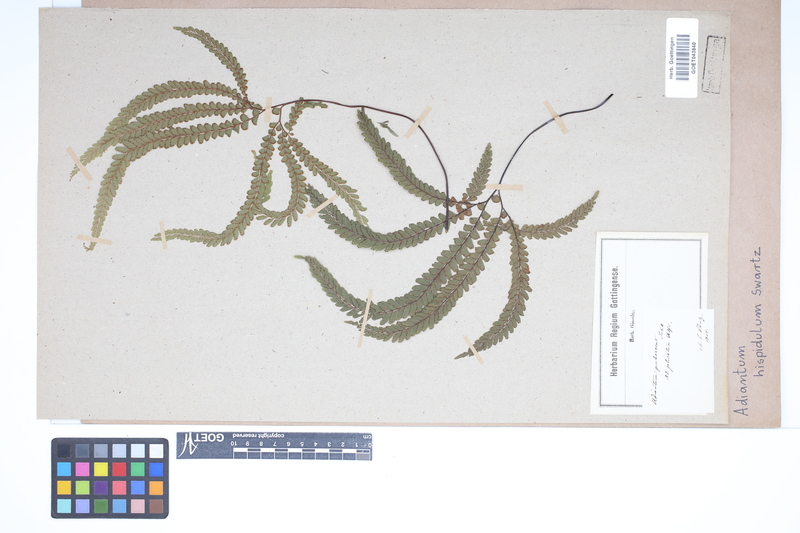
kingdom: Plantae
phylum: Tracheophyta
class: Polypodiopsida
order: Polypodiales
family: Pteridaceae
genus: Adiantum
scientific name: Adiantum hispidulum
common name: Rough maidenhair
